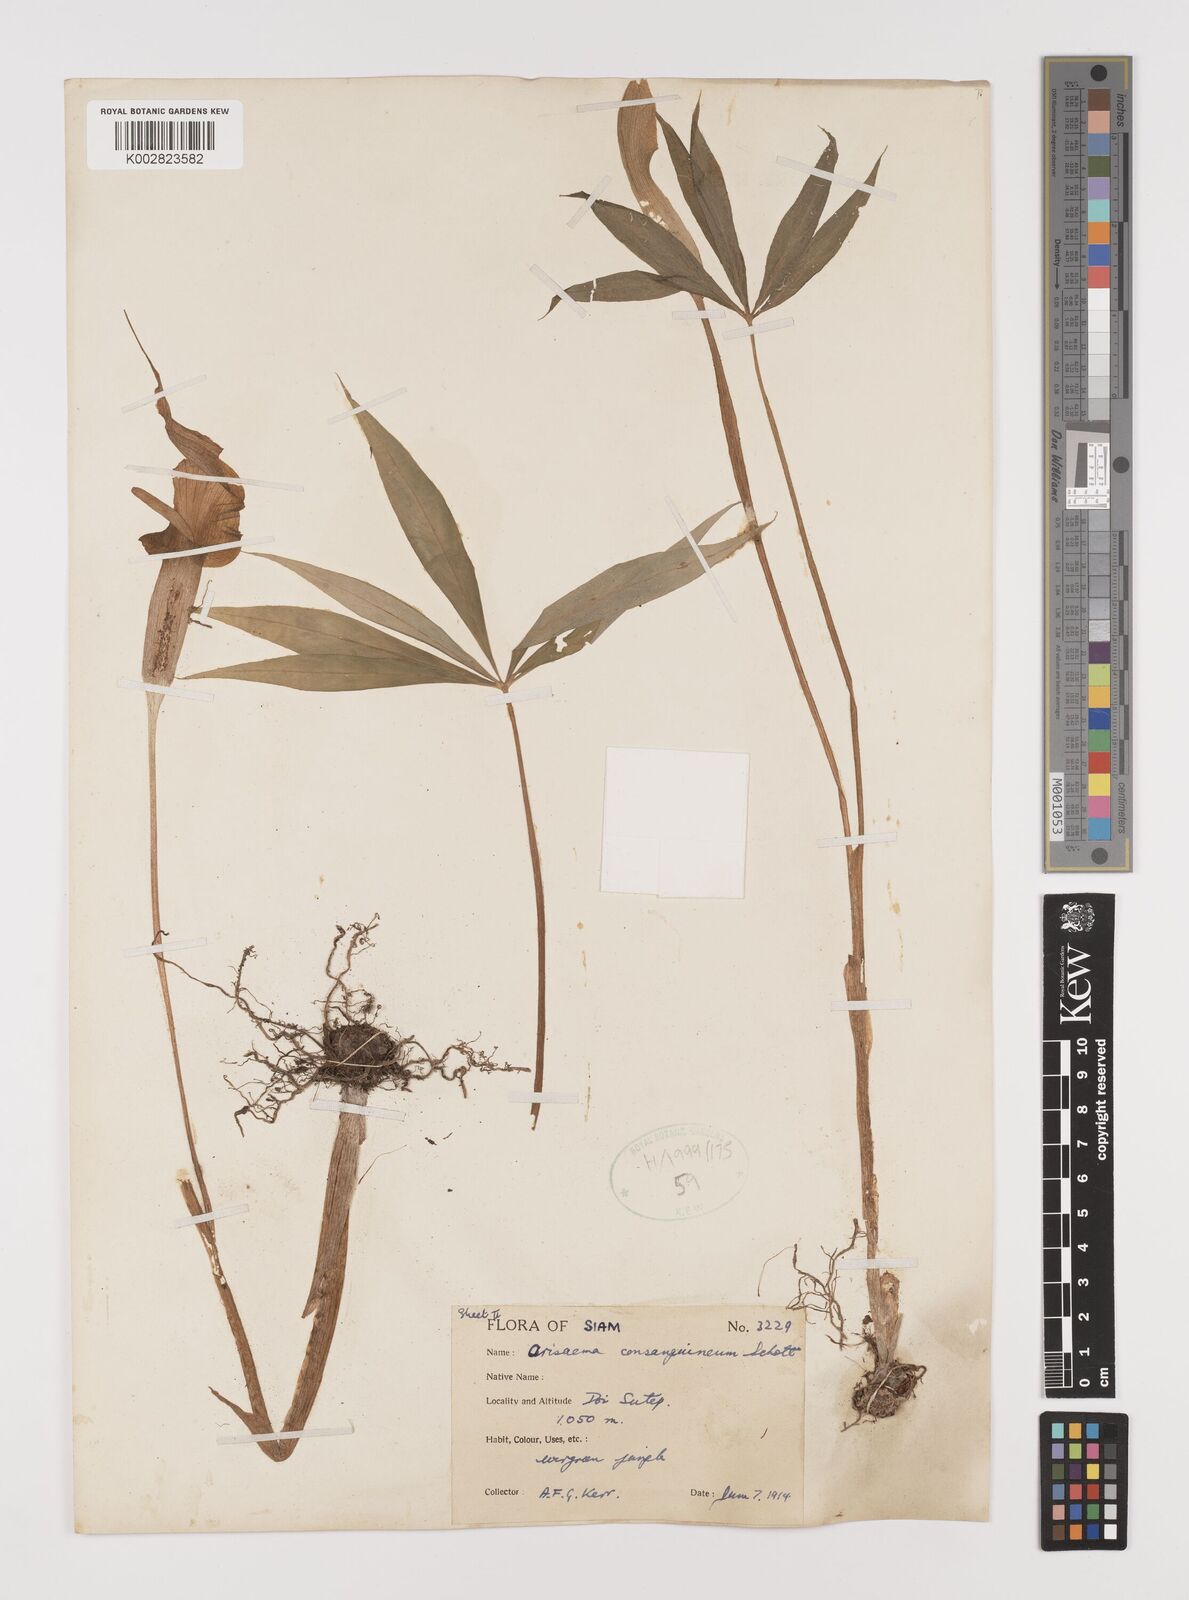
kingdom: Plantae
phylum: Tracheophyta
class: Liliopsida
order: Alismatales
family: Araceae
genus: Arisaema
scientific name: Arisaema consanguineum
